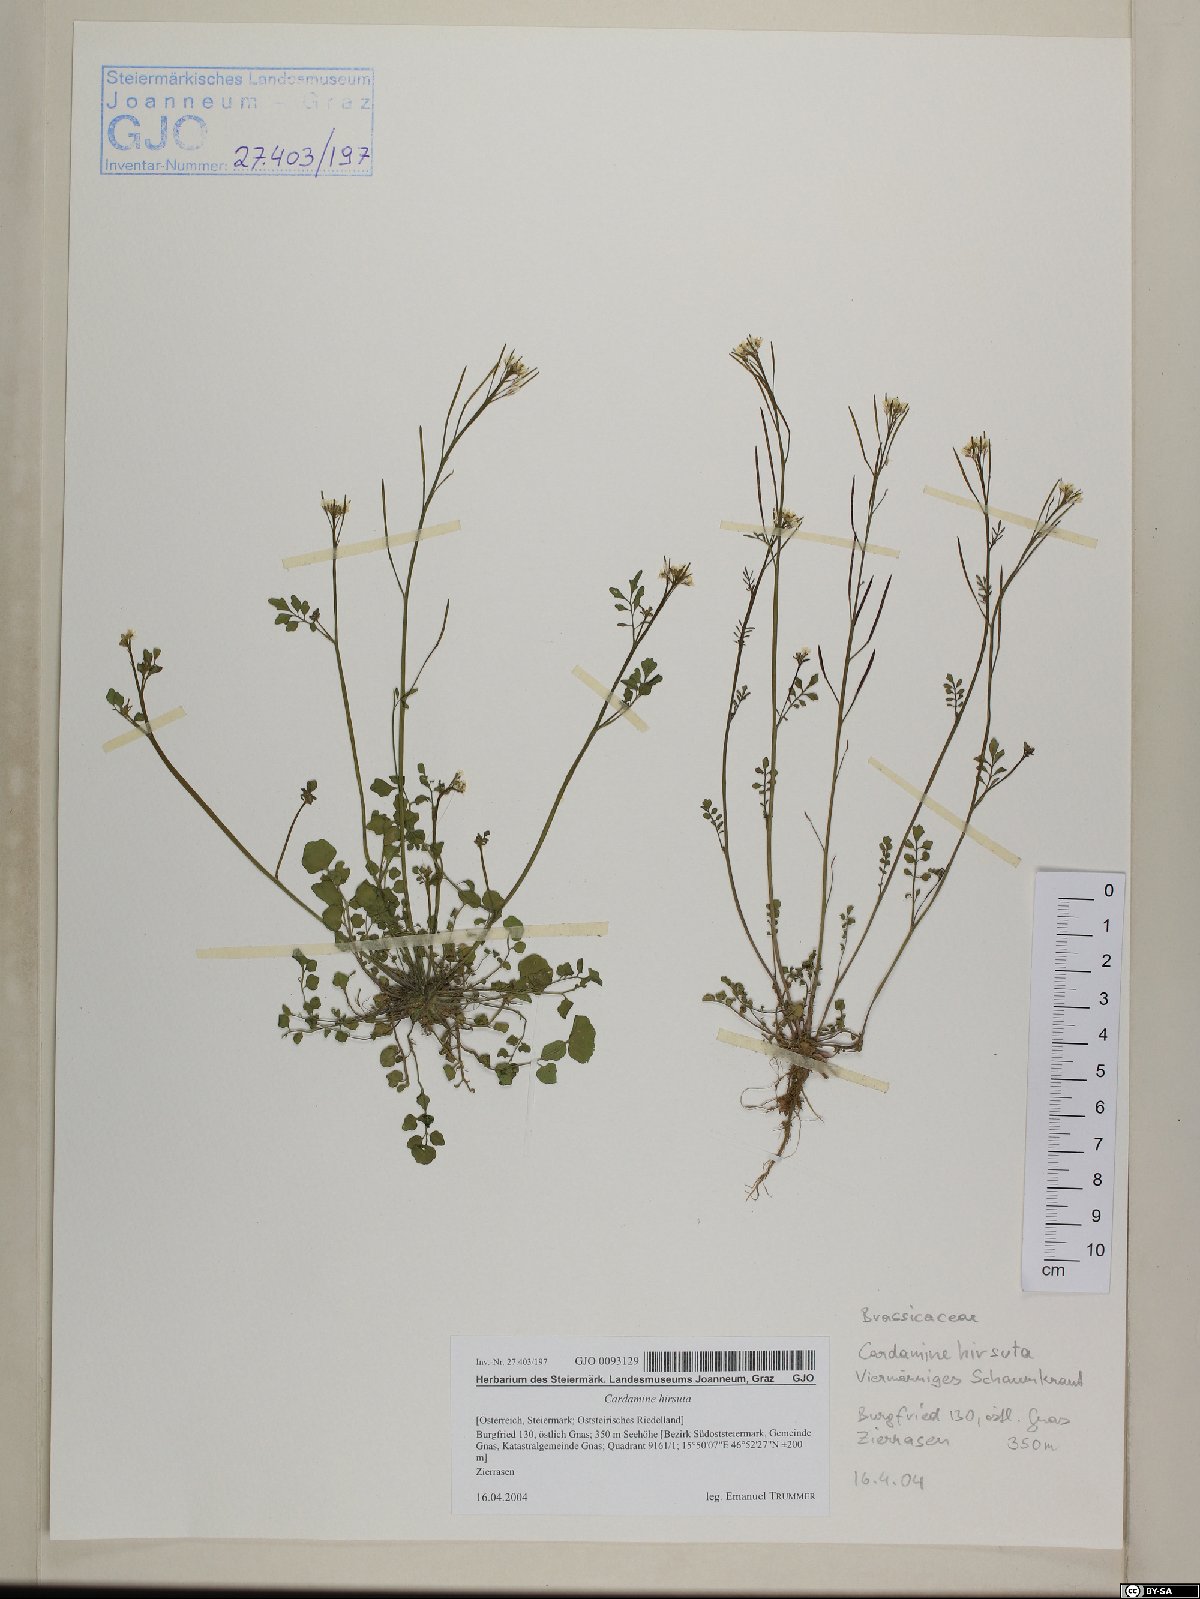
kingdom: Plantae
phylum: Tracheophyta
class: Magnoliopsida
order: Brassicales
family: Brassicaceae
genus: Cardamine
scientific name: Cardamine hirsuta
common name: Hairy bittercress
